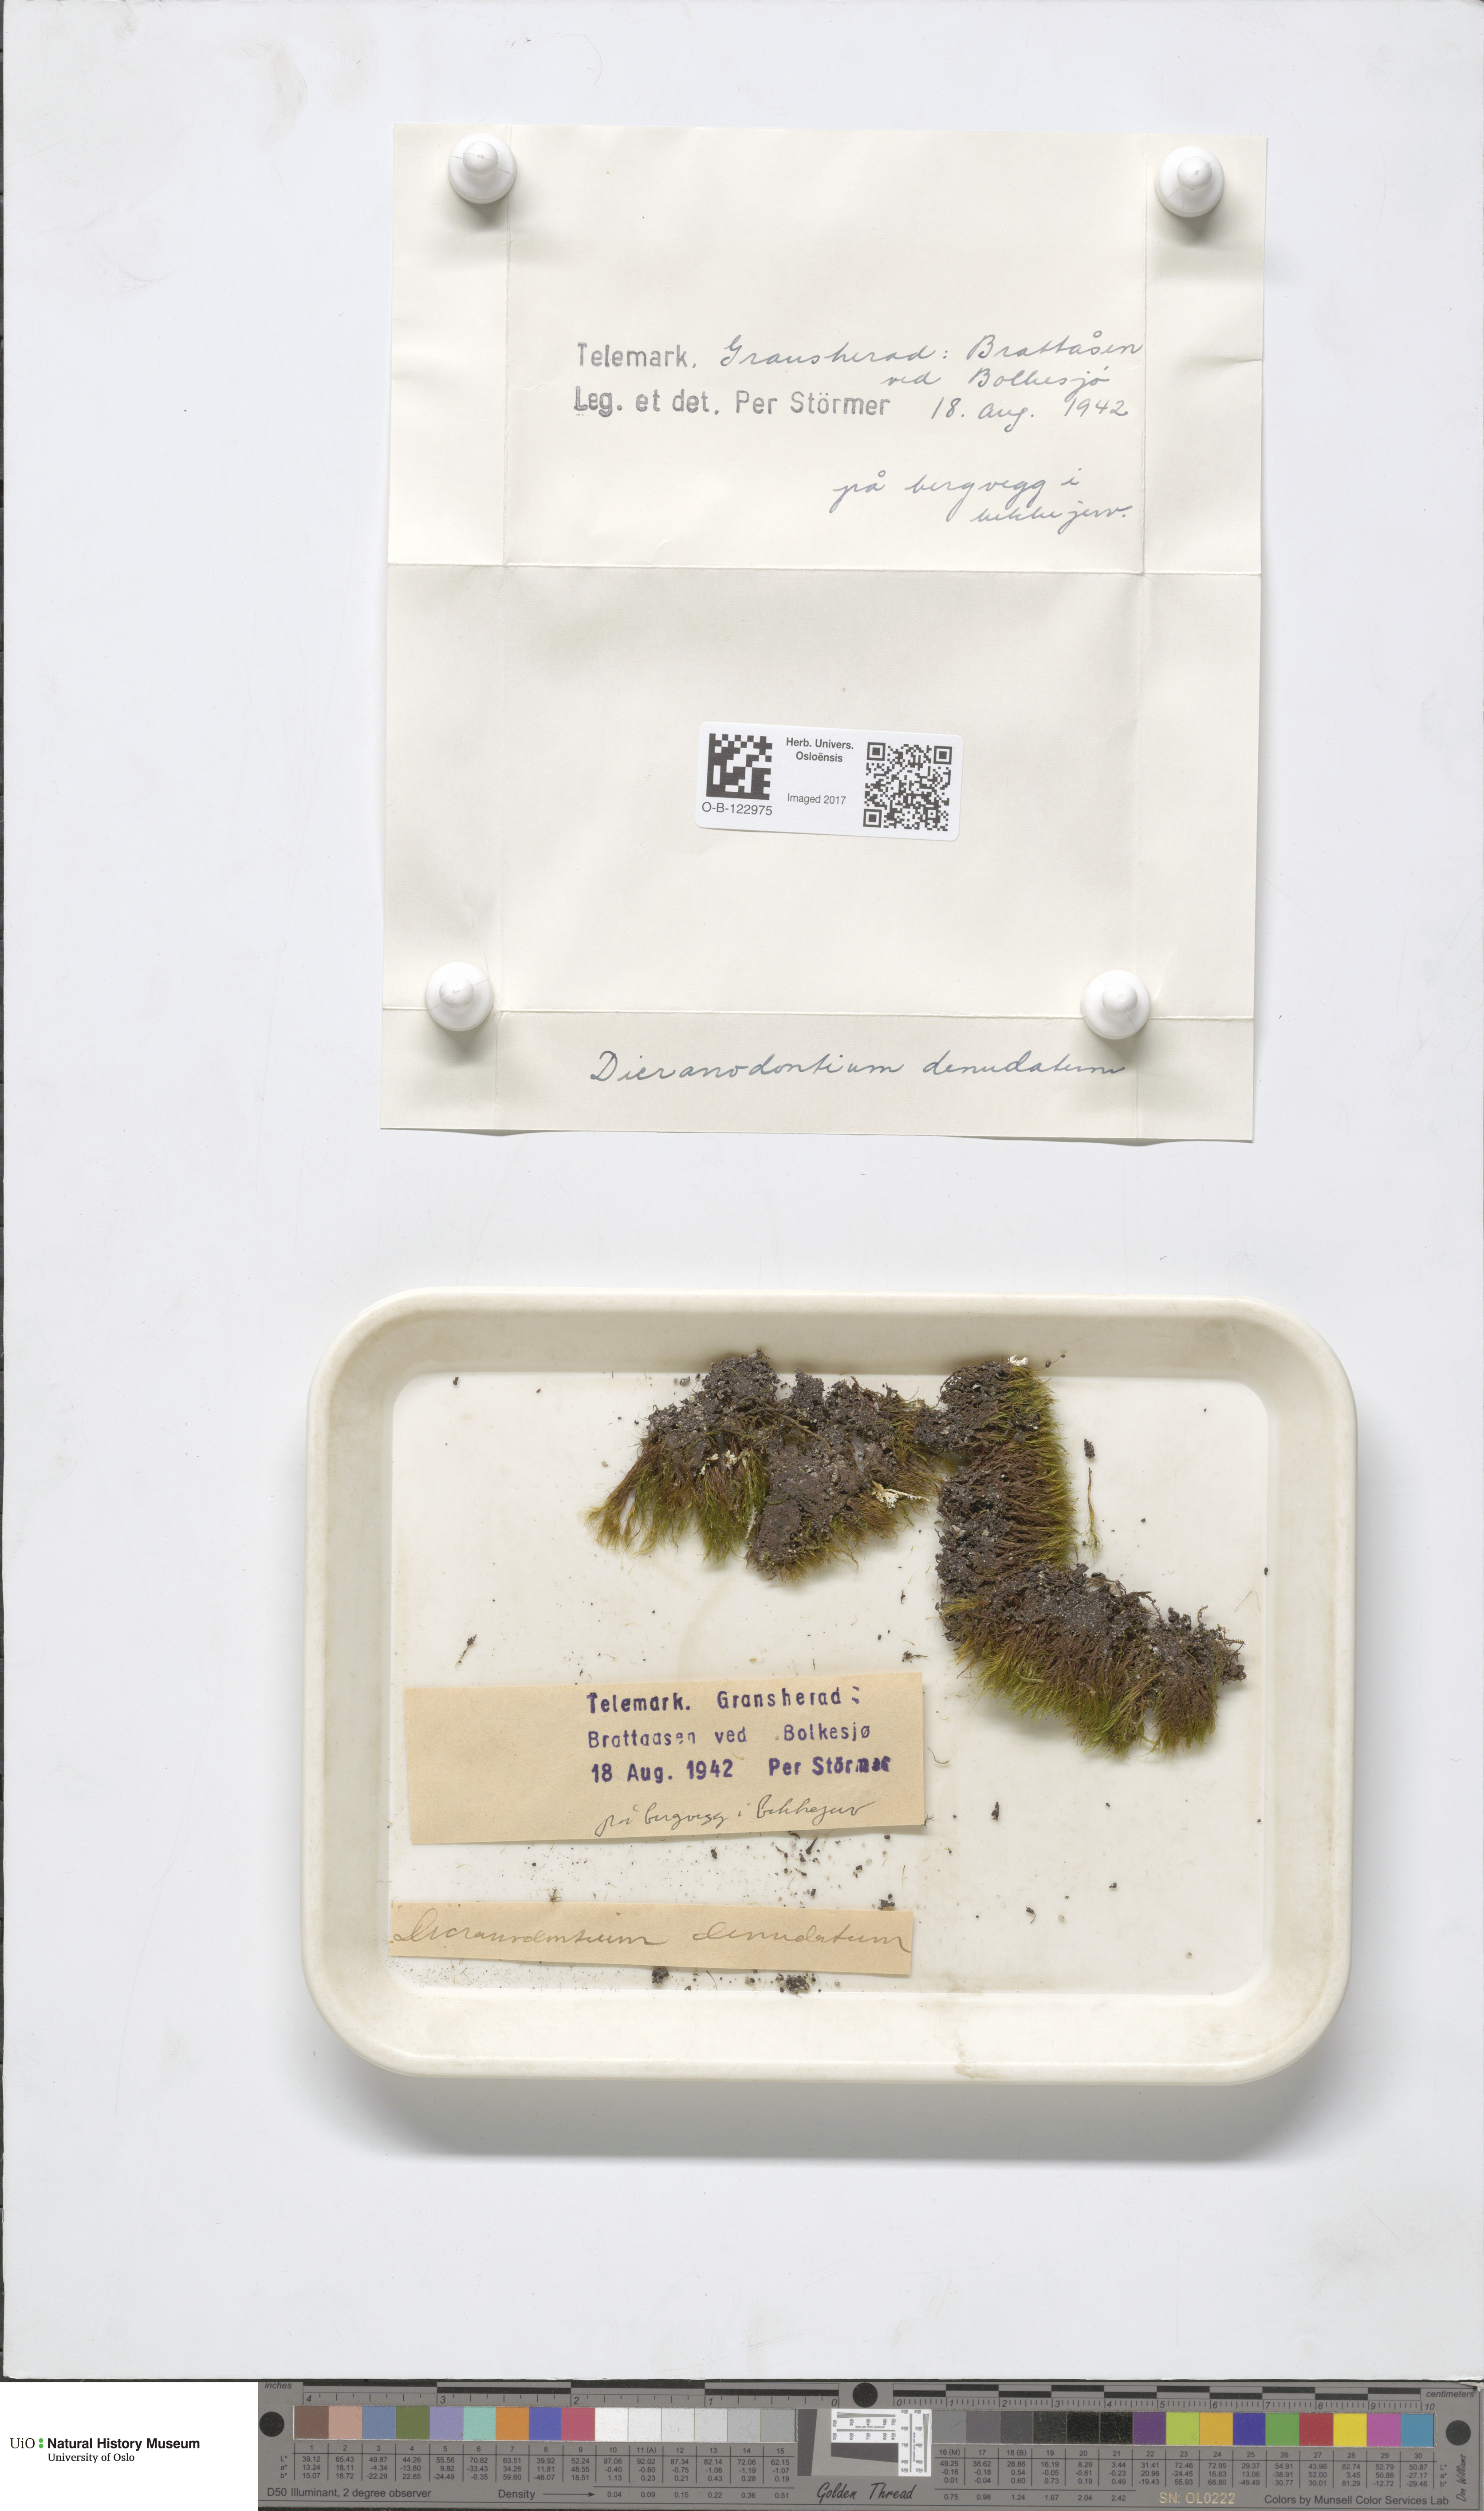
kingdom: Plantae
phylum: Bryophyta
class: Bryopsida
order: Dicranales
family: Leucobryaceae
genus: Dicranodontium
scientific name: Dicranodontium denudatum
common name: Beaked bow moss
